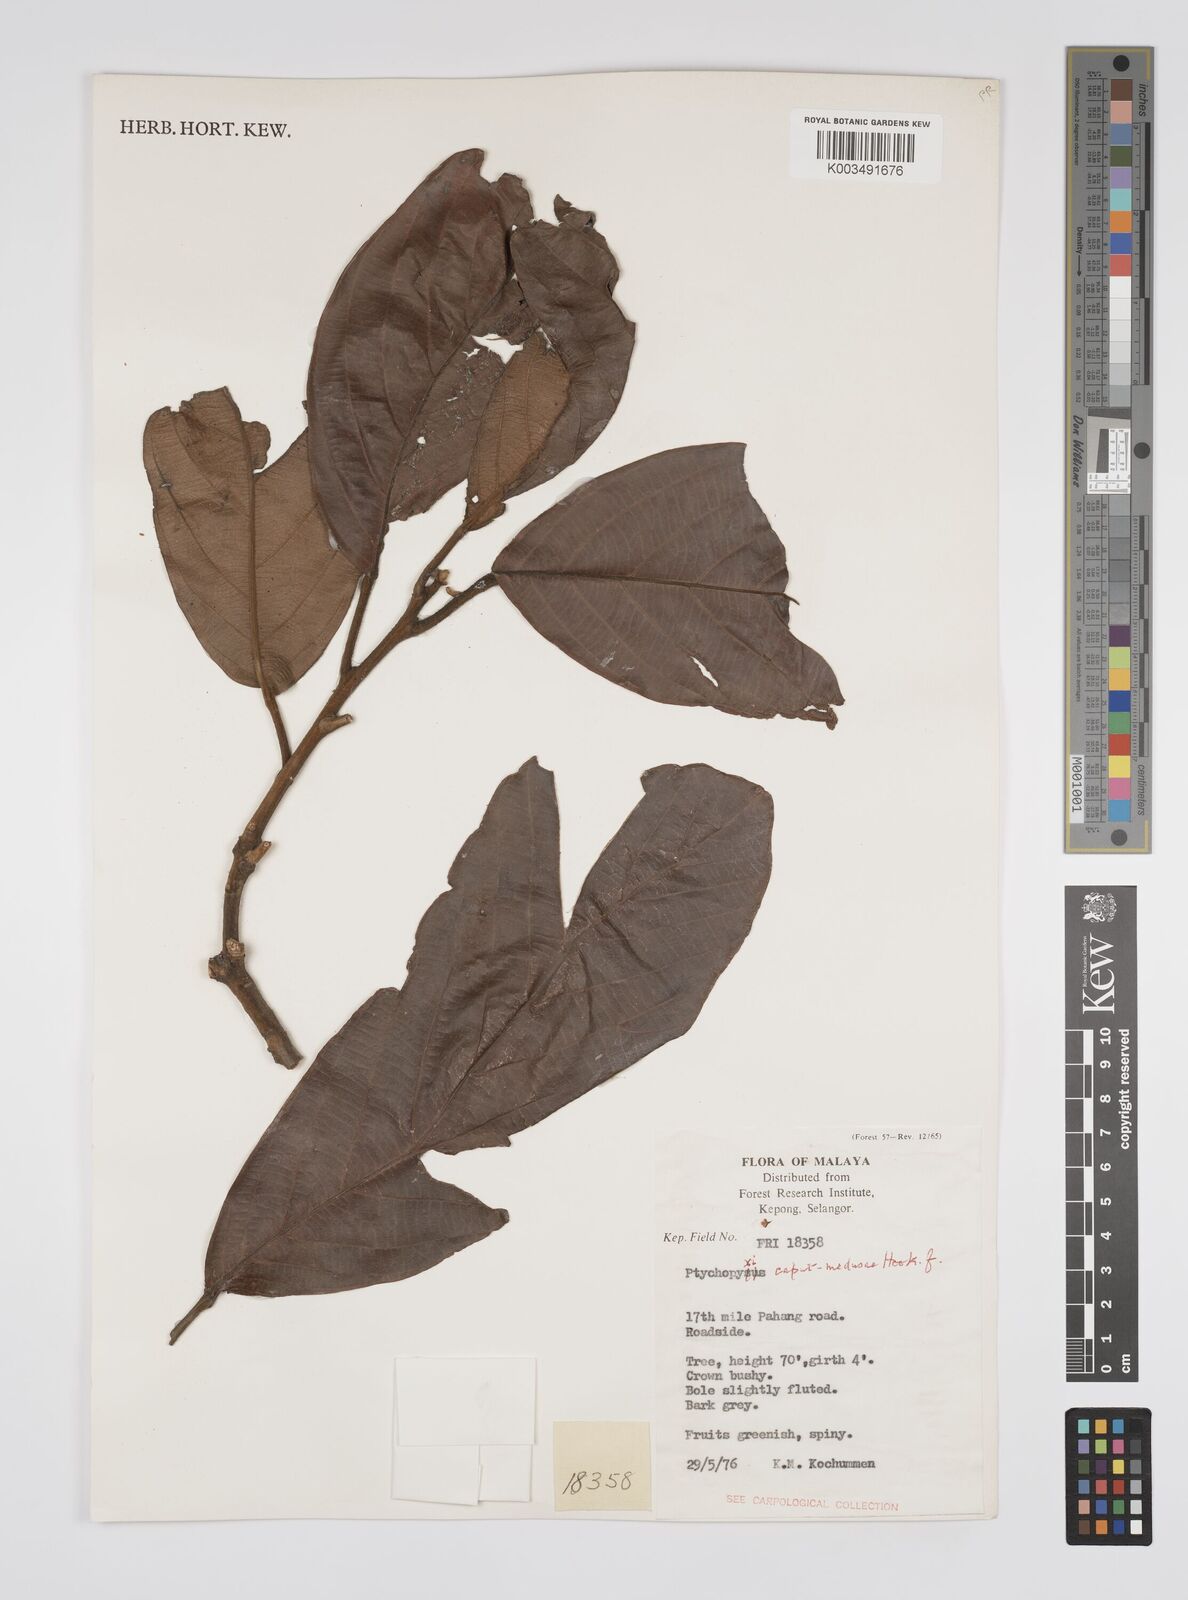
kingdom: Plantae
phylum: Tracheophyta
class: Magnoliopsida
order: Malpighiales
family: Euphorbiaceae
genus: Ptychopyxis
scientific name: Ptychopyxis caput-medusae
